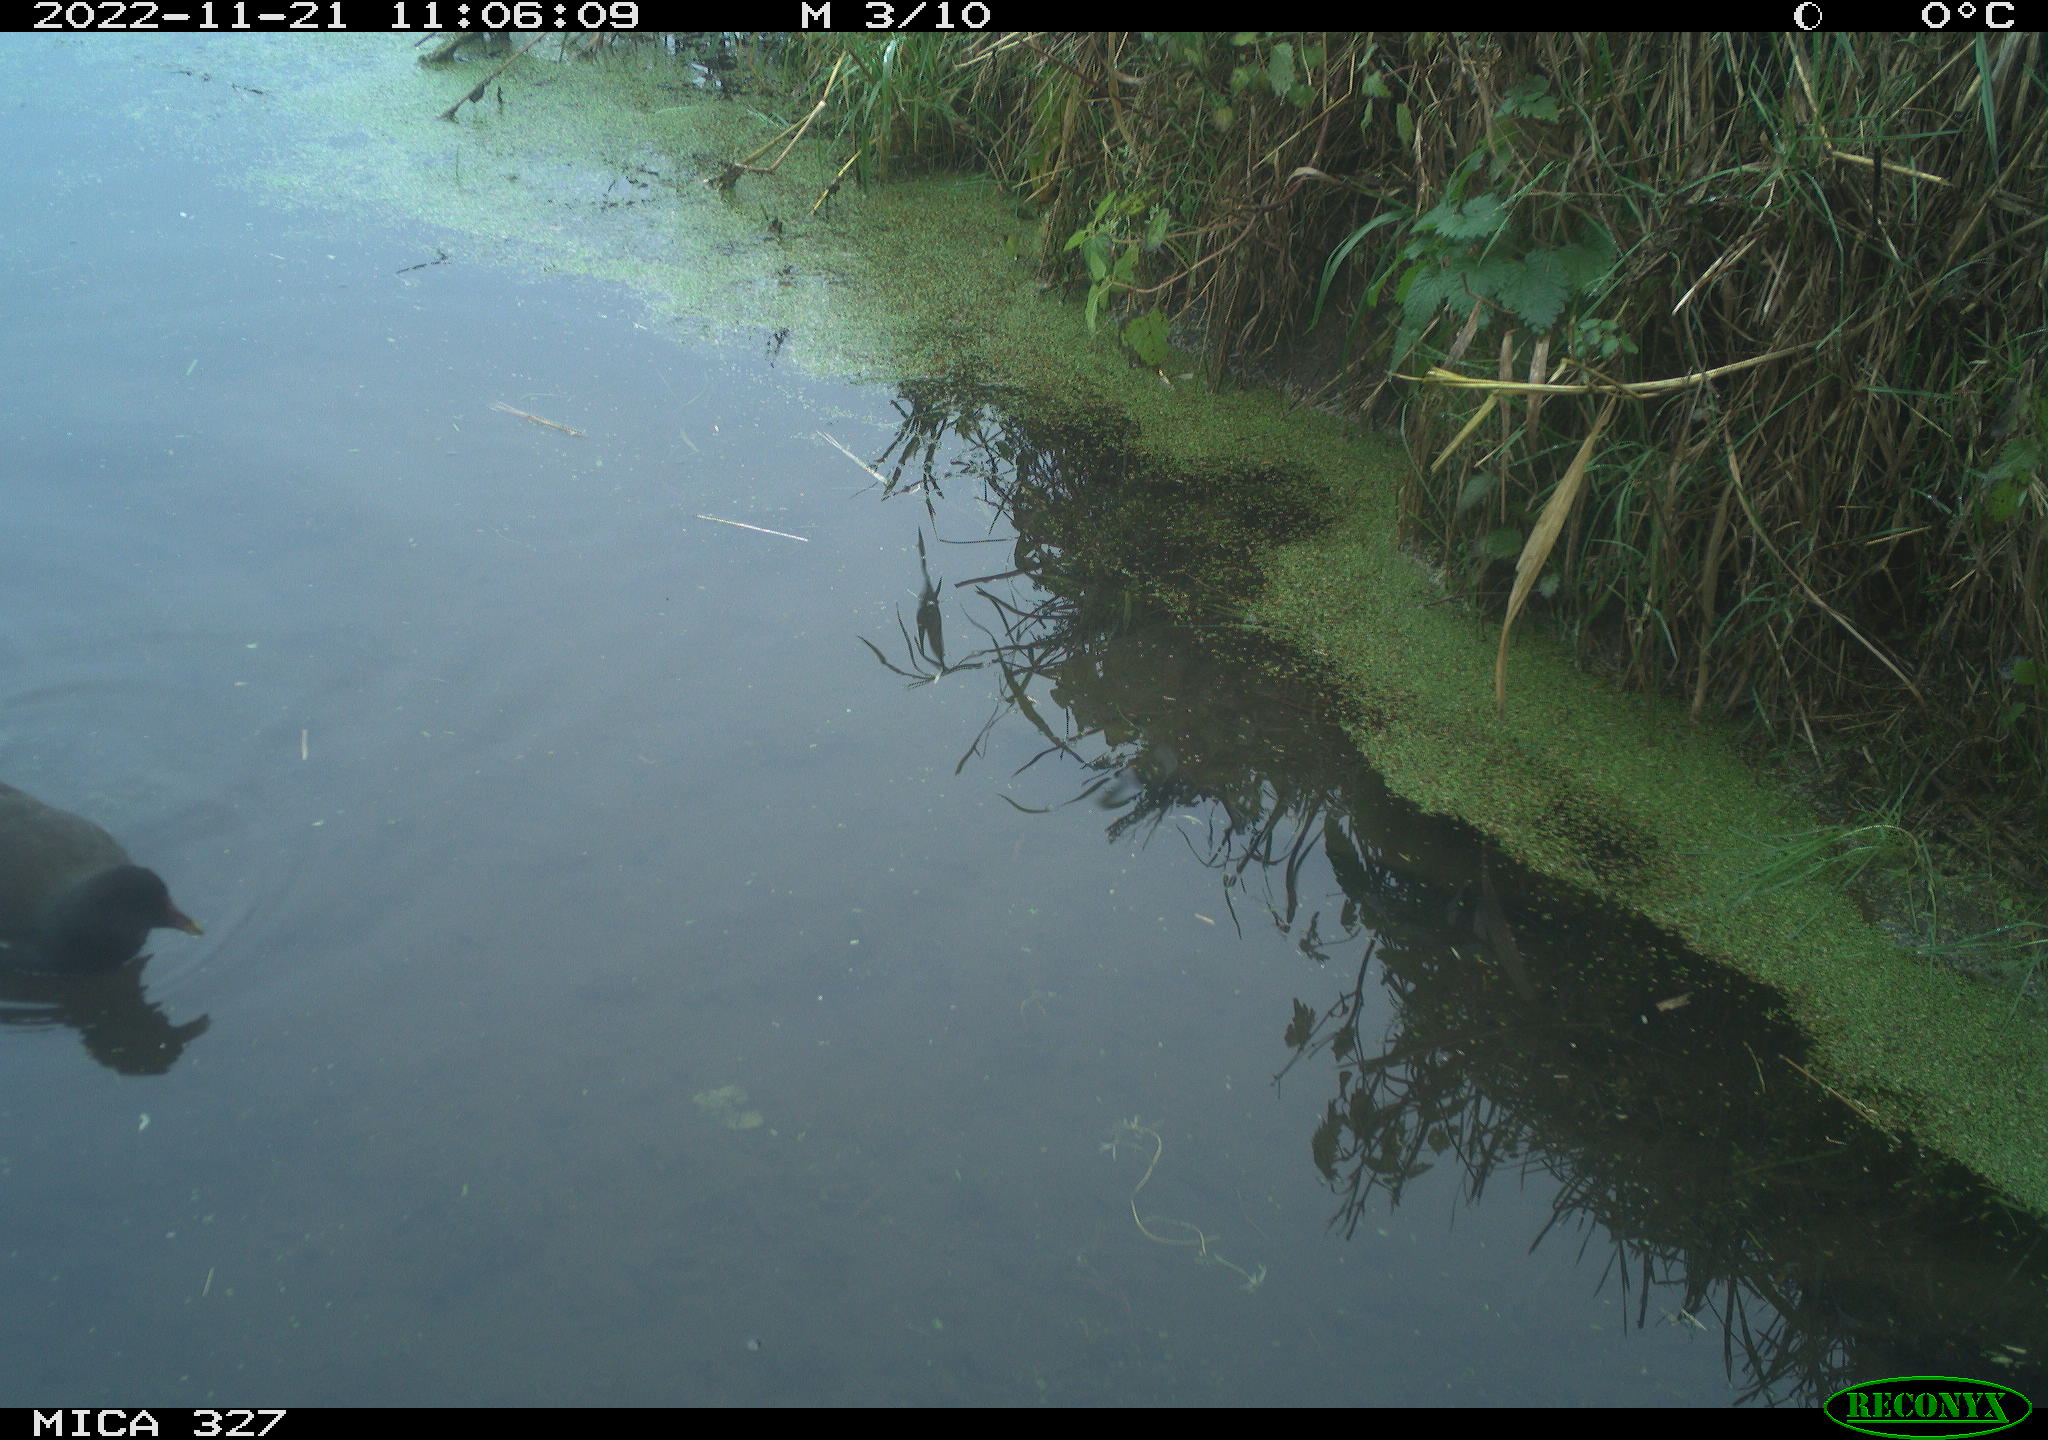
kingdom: Animalia
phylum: Chordata
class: Aves
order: Gruiformes
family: Rallidae
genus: Gallinula
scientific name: Gallinula chloropus
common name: Common moorhen
